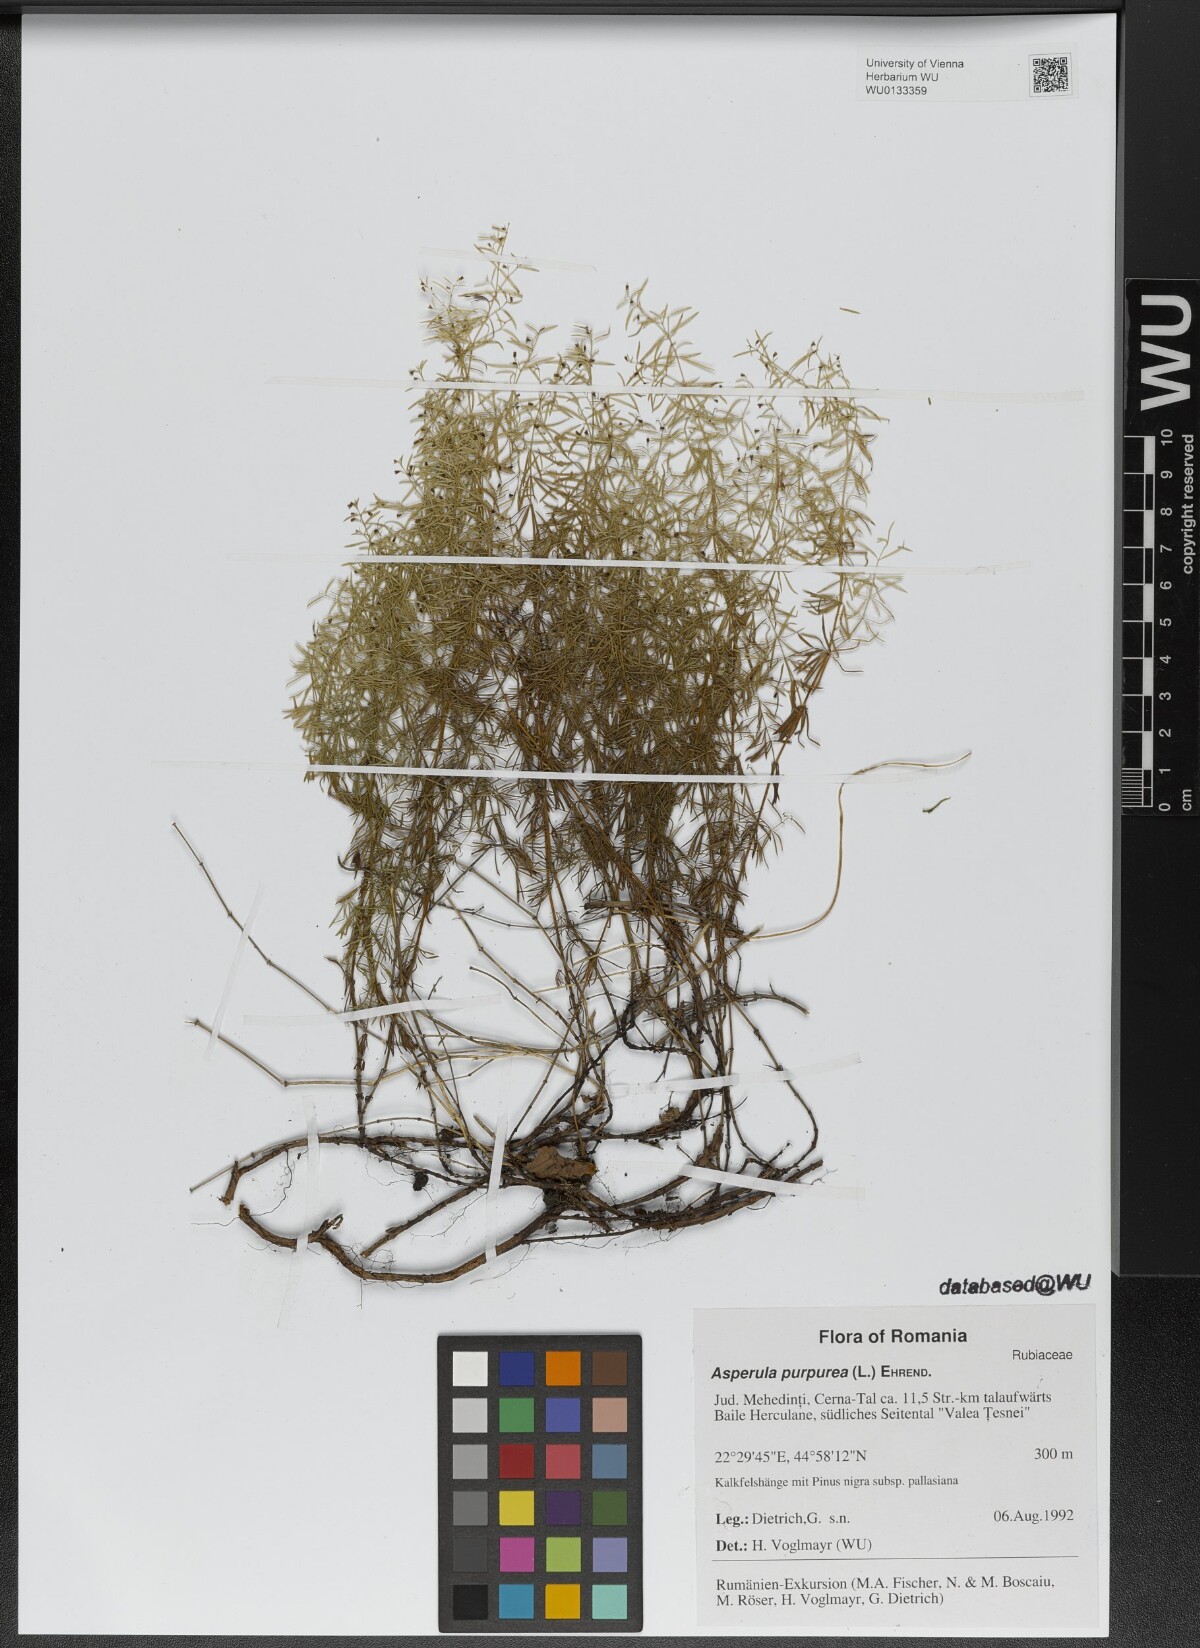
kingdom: Plantae
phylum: Tracheophyta
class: Magnoliopsida
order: Gentianales
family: Rubiaceae
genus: Thliphthisa
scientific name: Thliphthisa purpurea
